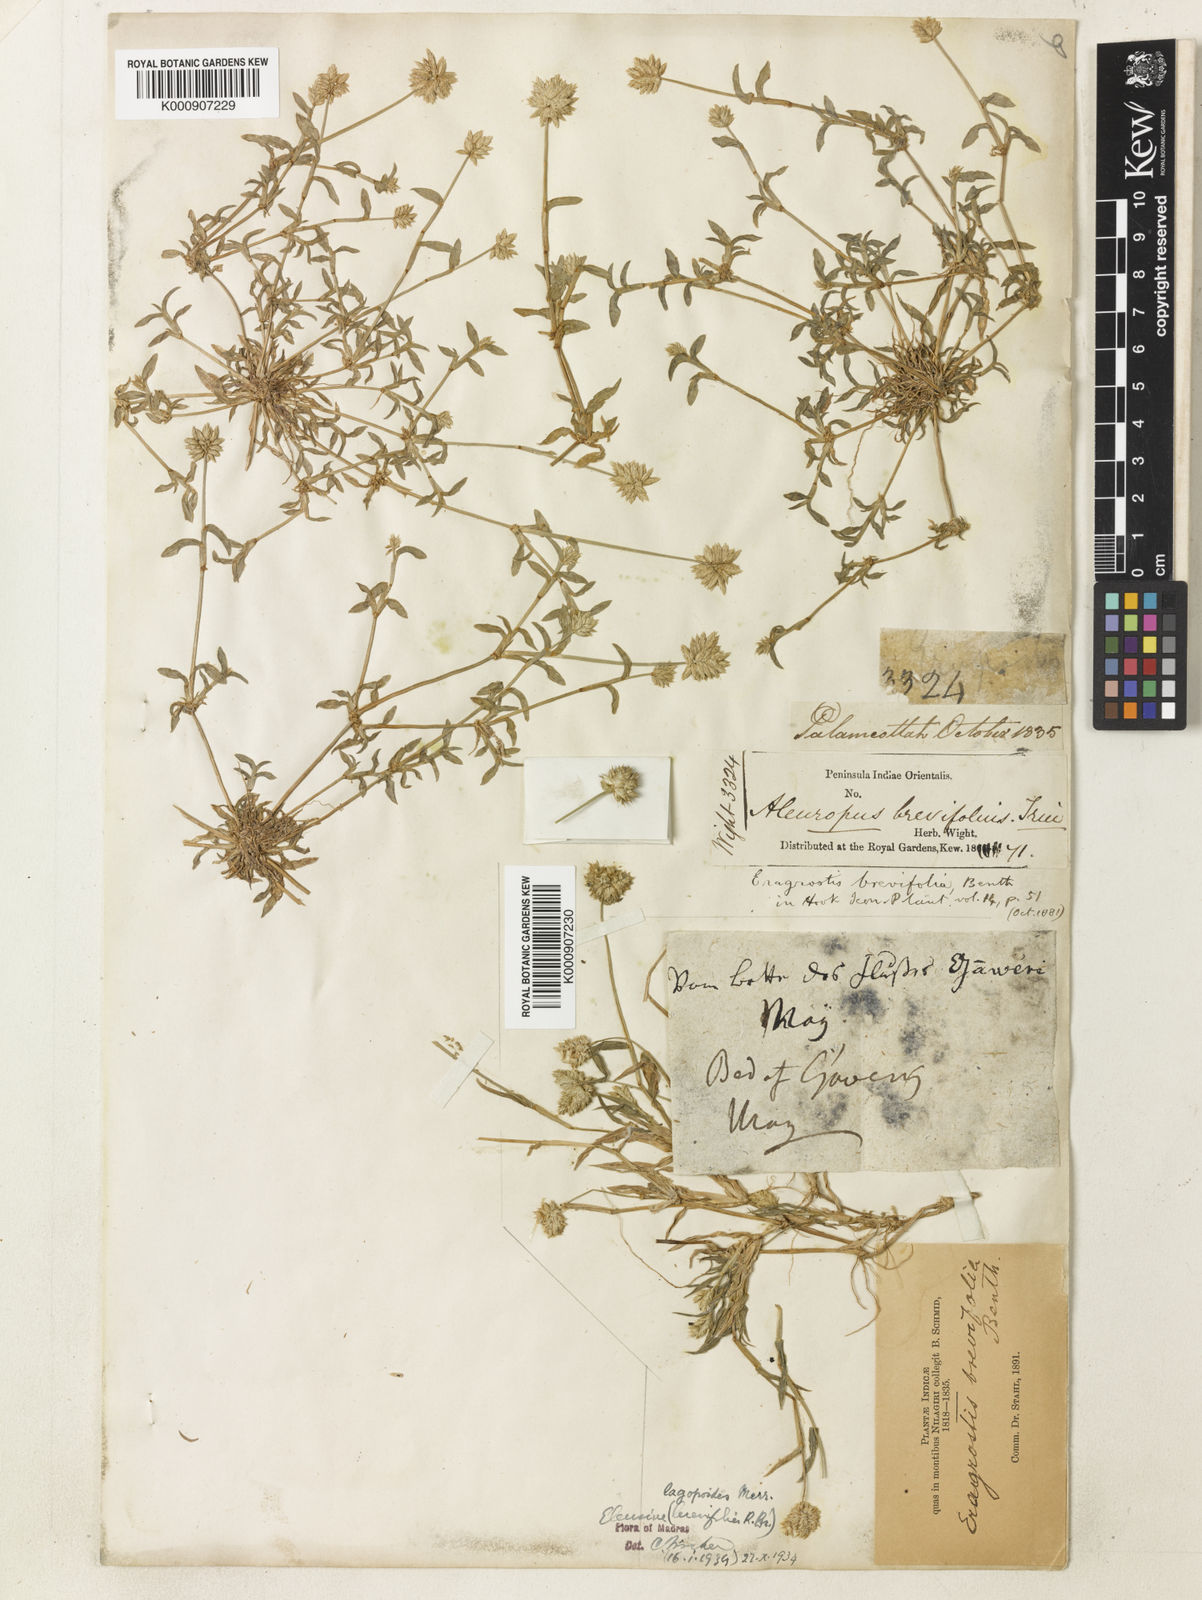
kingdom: Plantae
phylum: Tracheophyta
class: Liliopsida
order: Poales
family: Poaceae
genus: Coelachyrum
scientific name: Coelachyrum lagopoides
